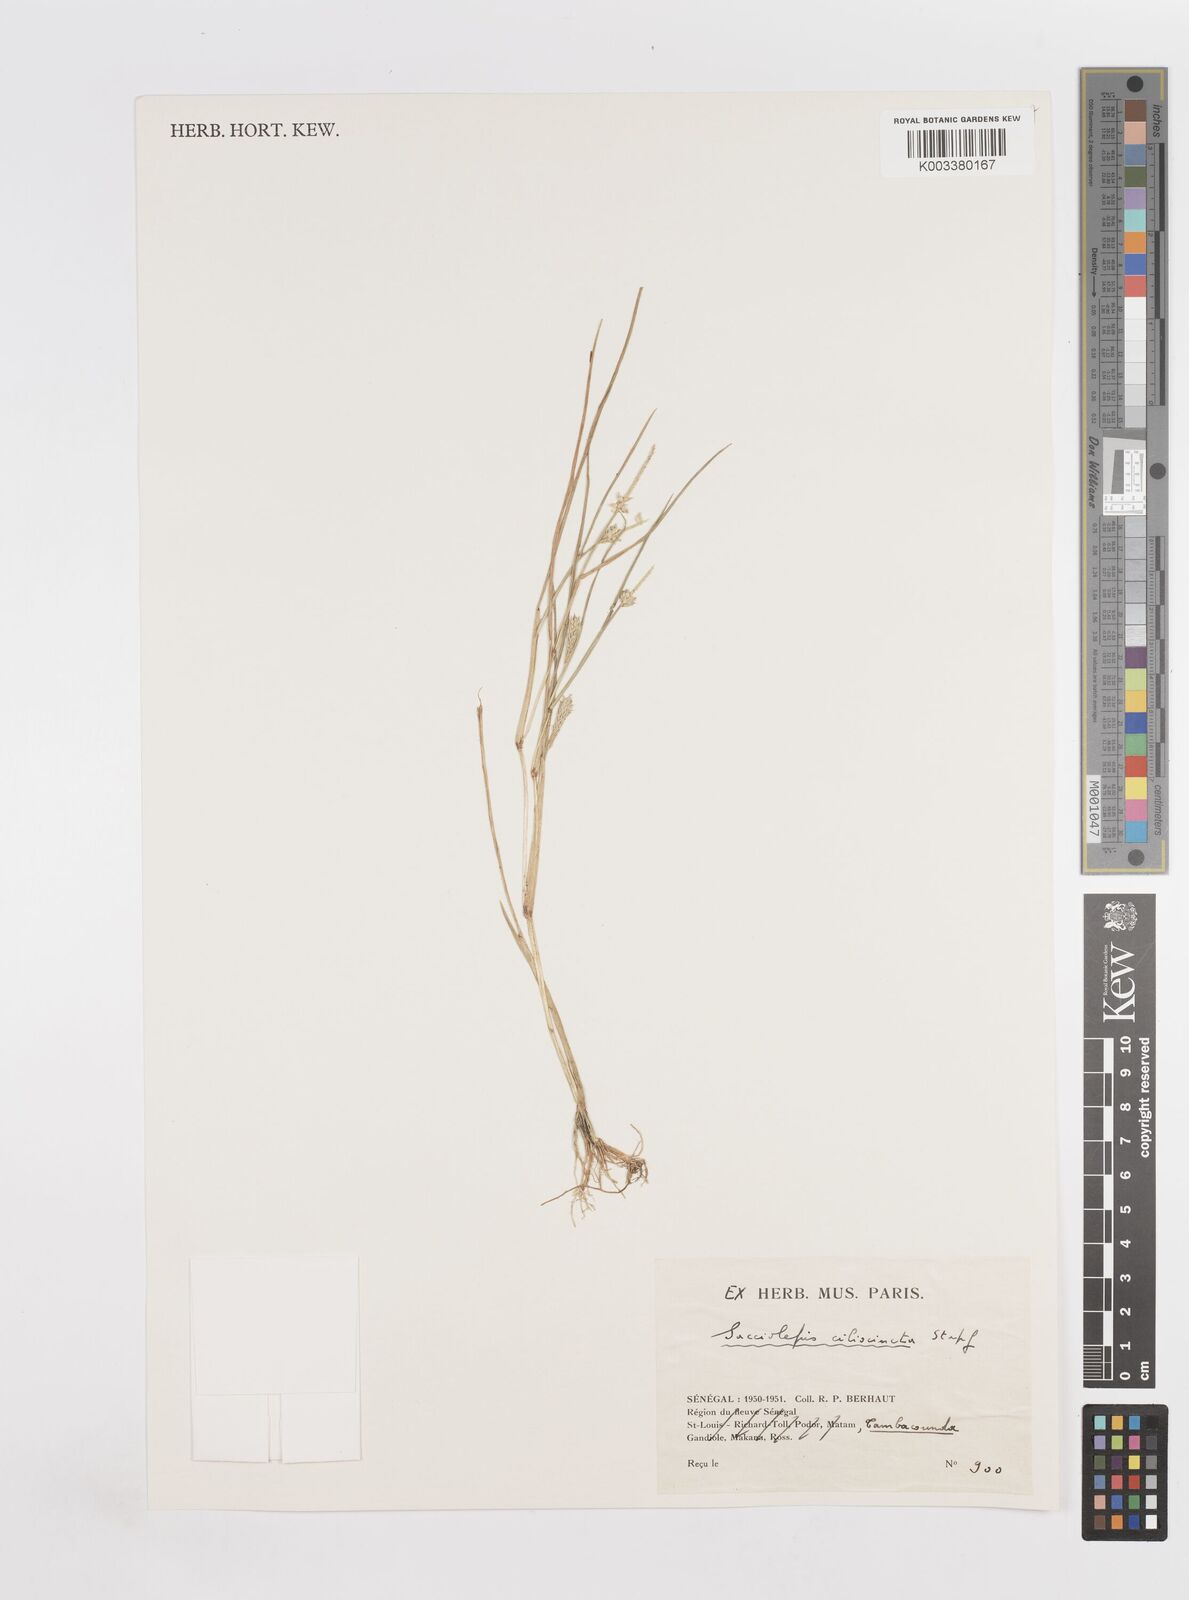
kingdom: Plantae
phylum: Tracheophyta
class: Liliopsida
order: Poales
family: Poaceae
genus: Sacciolepis
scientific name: Sacciolepis ciliocincta
